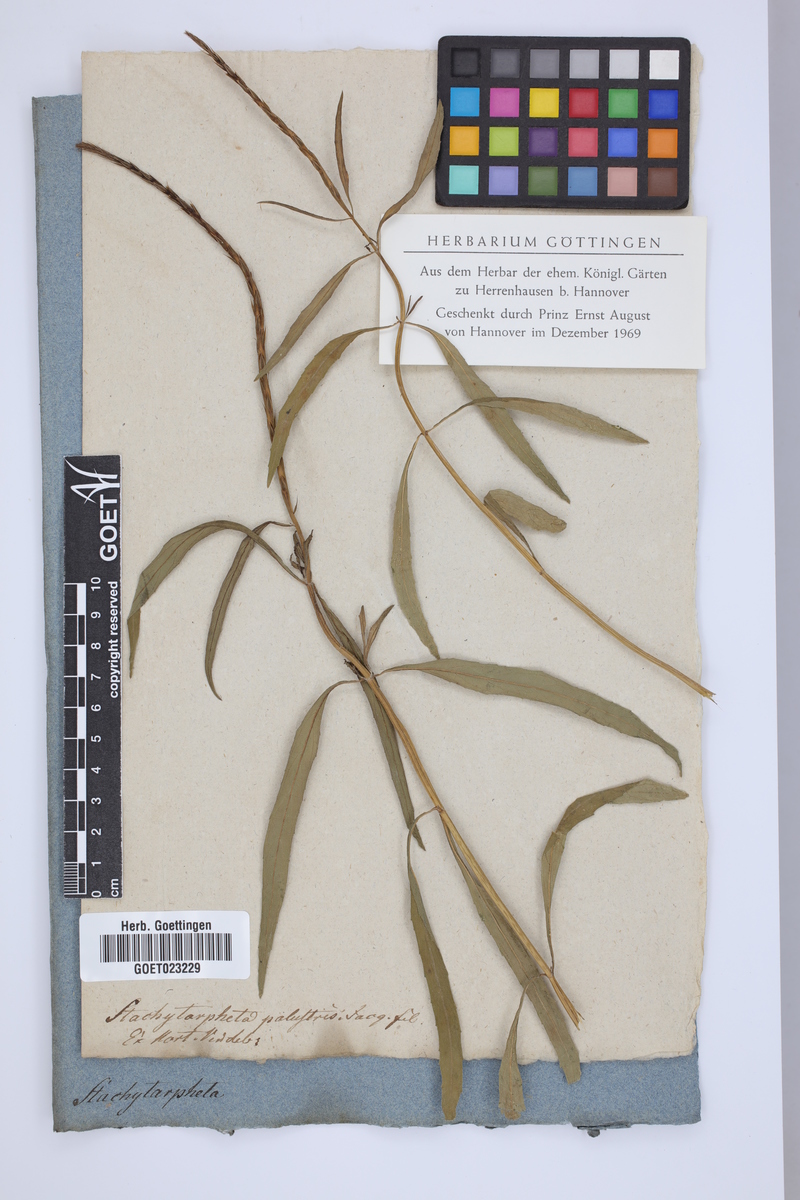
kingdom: Plantae
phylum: Tracheophyta
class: Magnoliopsida
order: Lamiales
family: Verbenaceae
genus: Stachytarpheta
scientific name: Stachytarpheta marginata
